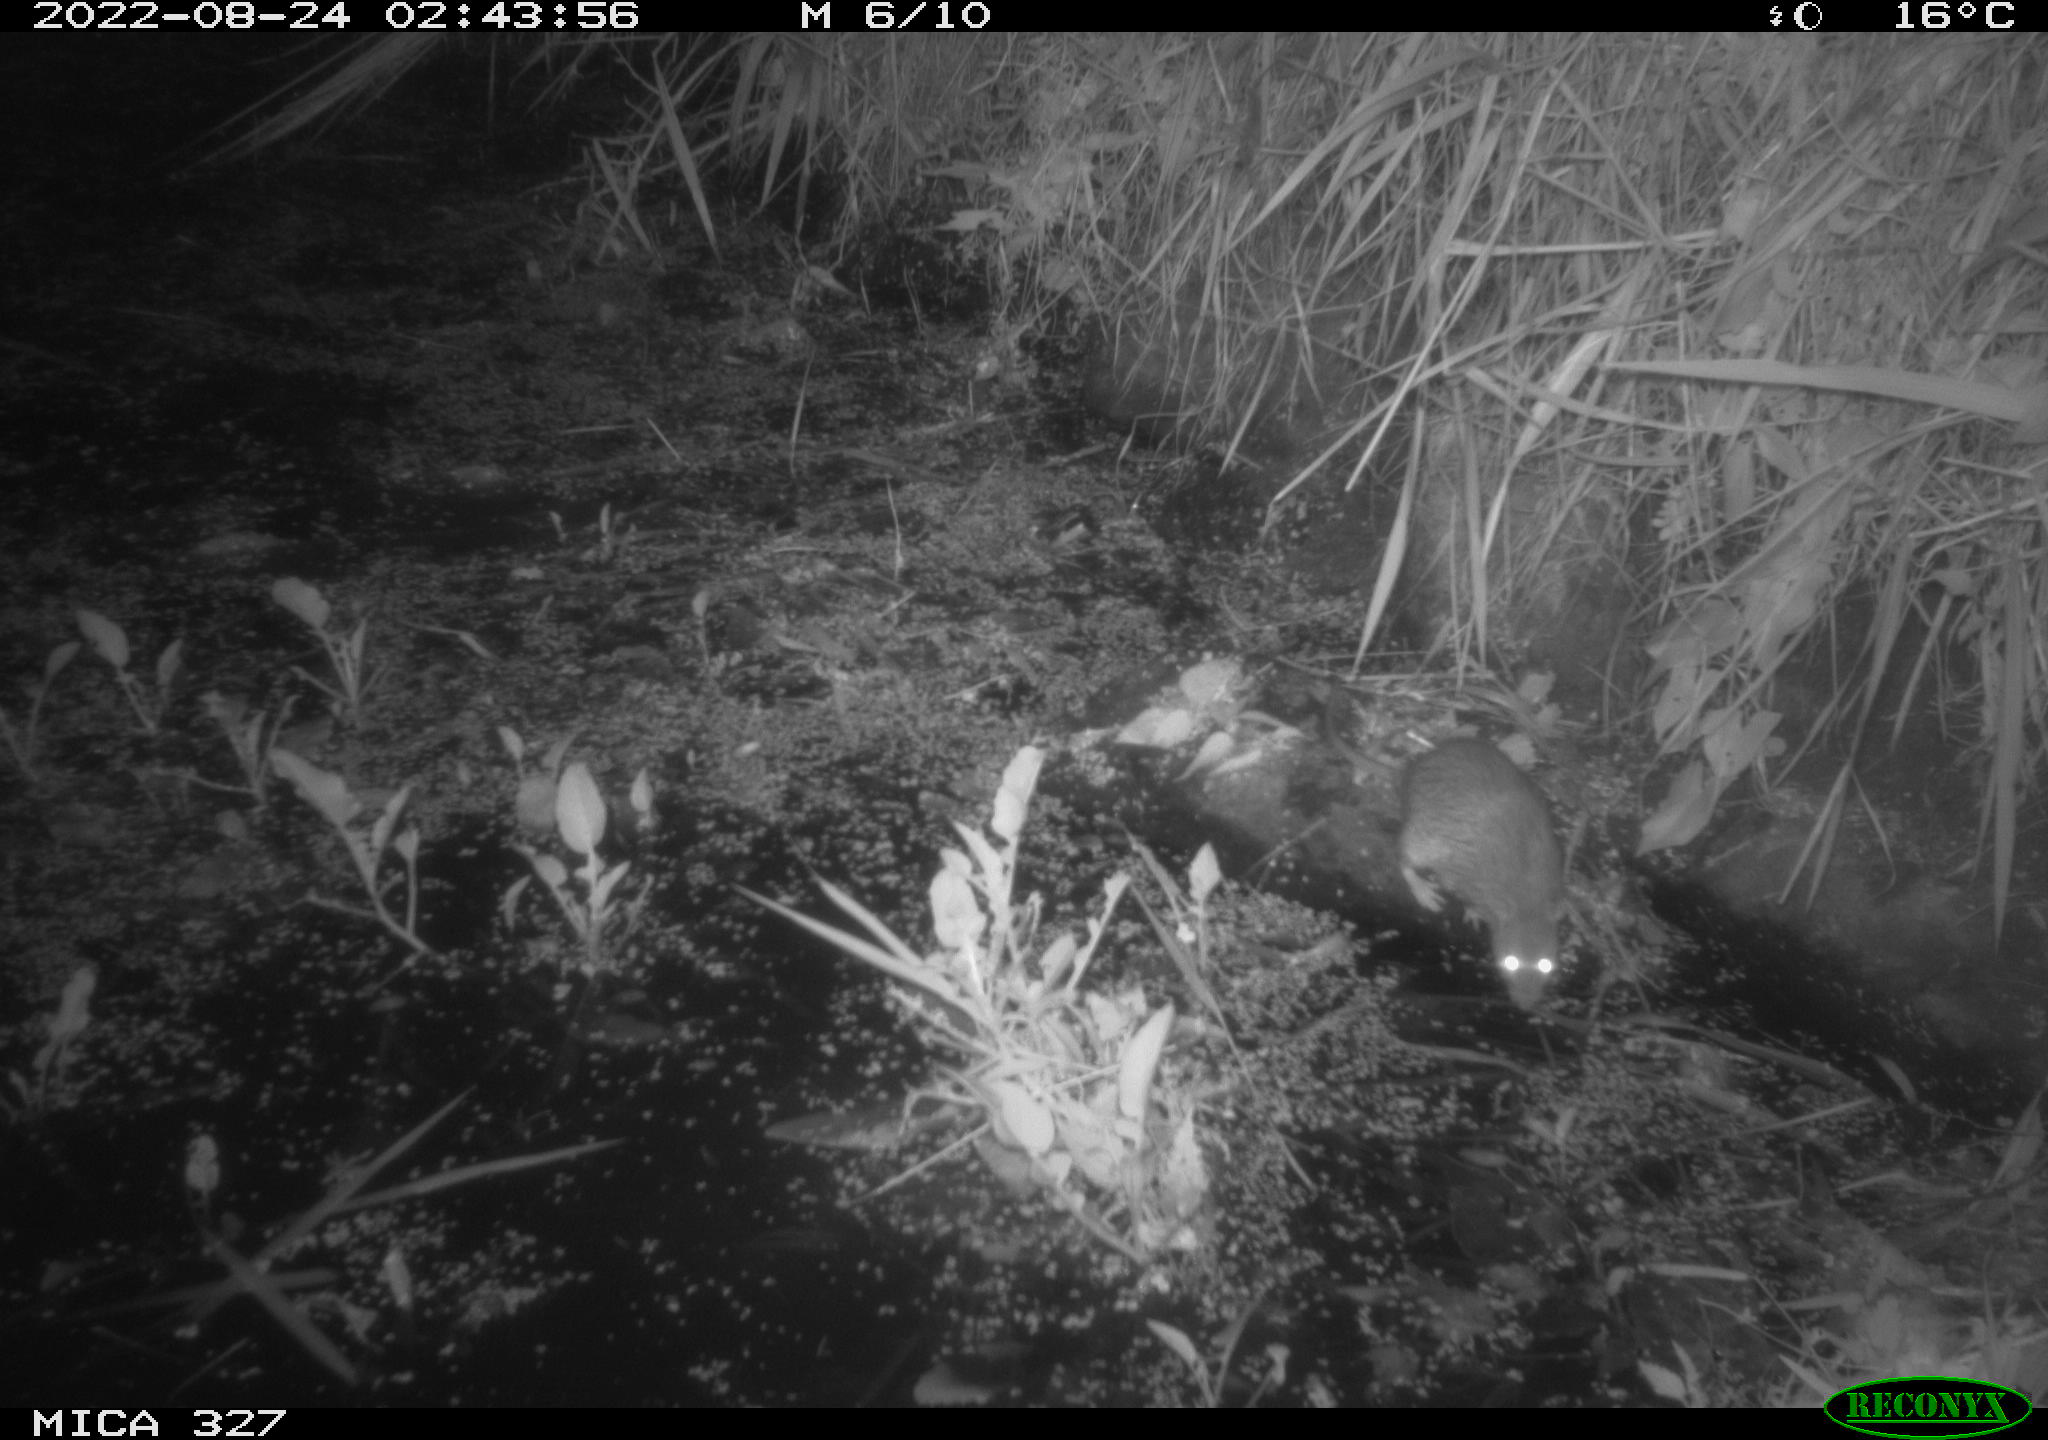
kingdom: Animalia
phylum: Chordata
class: Mammalia
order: Rodentia
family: Muridae
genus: Rattus
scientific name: Rattus norvegicus
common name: Brown rat
